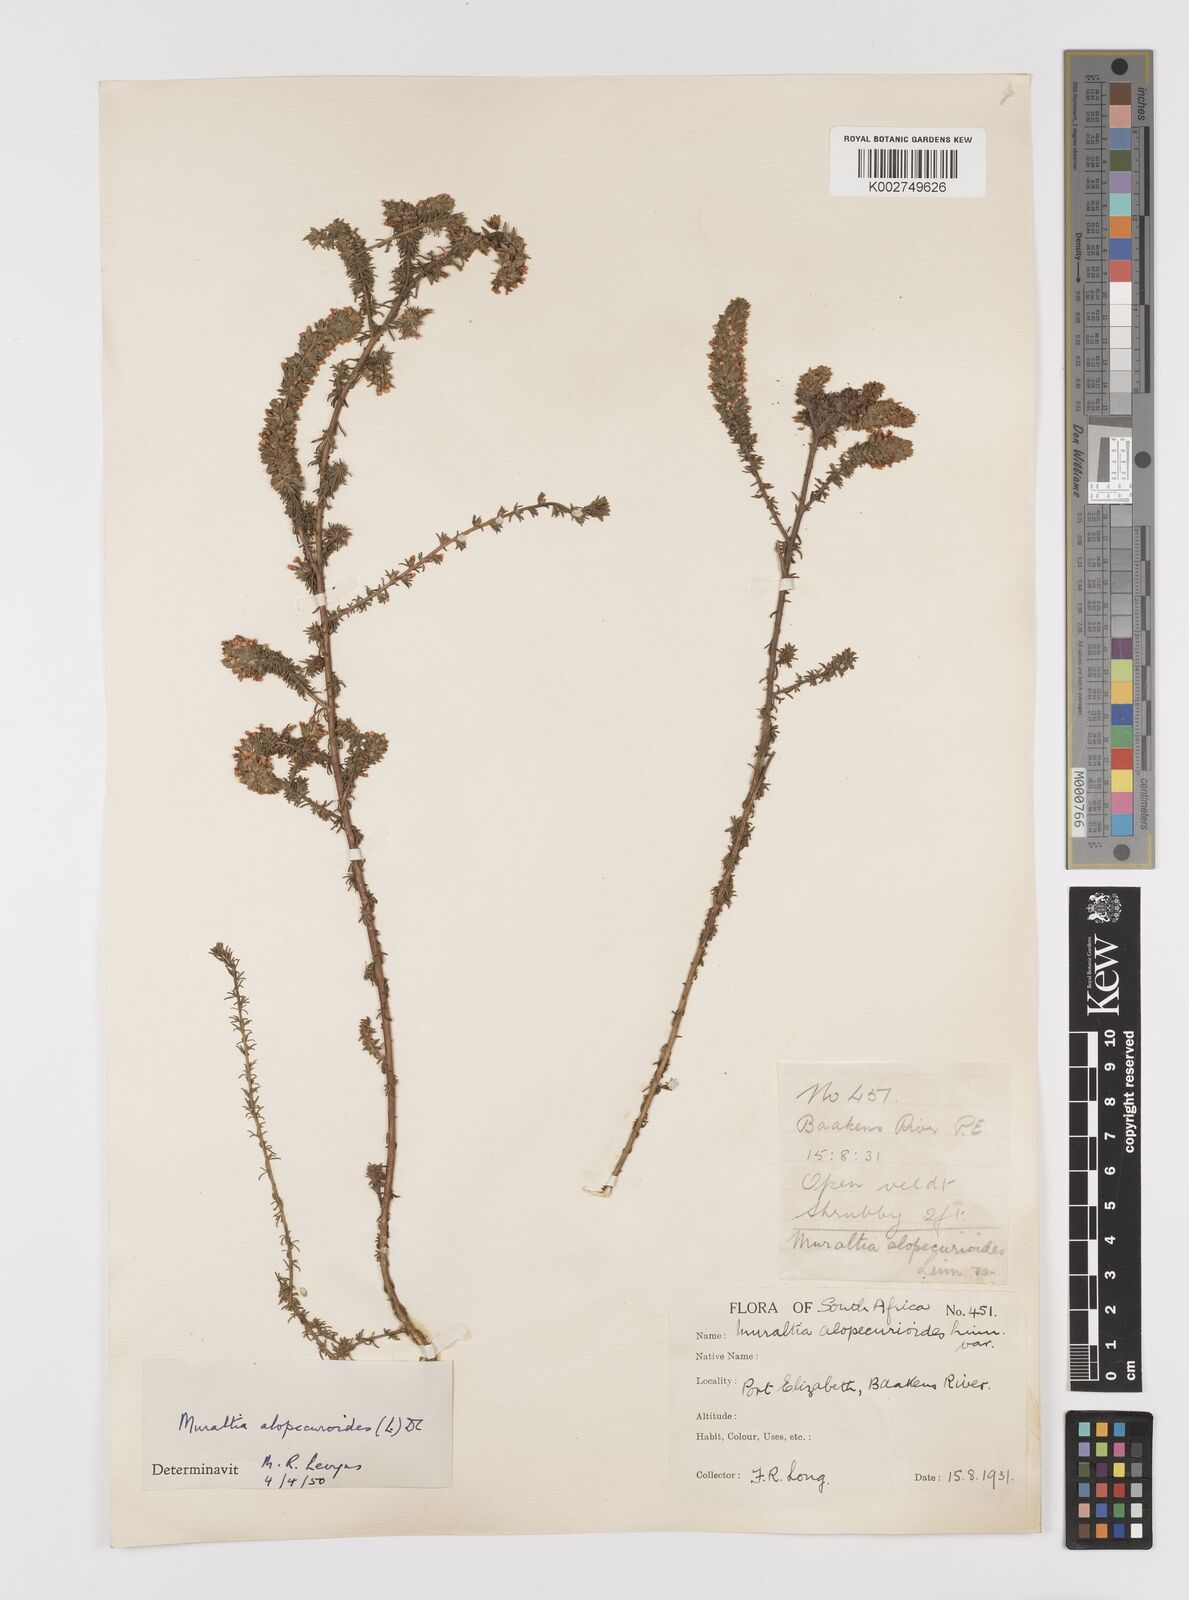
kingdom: Plantae
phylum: Tracheophyta
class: Magnoliopsida
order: Fabales
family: Polygalaceae
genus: Muraltia
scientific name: Muraltia alopecuroides
